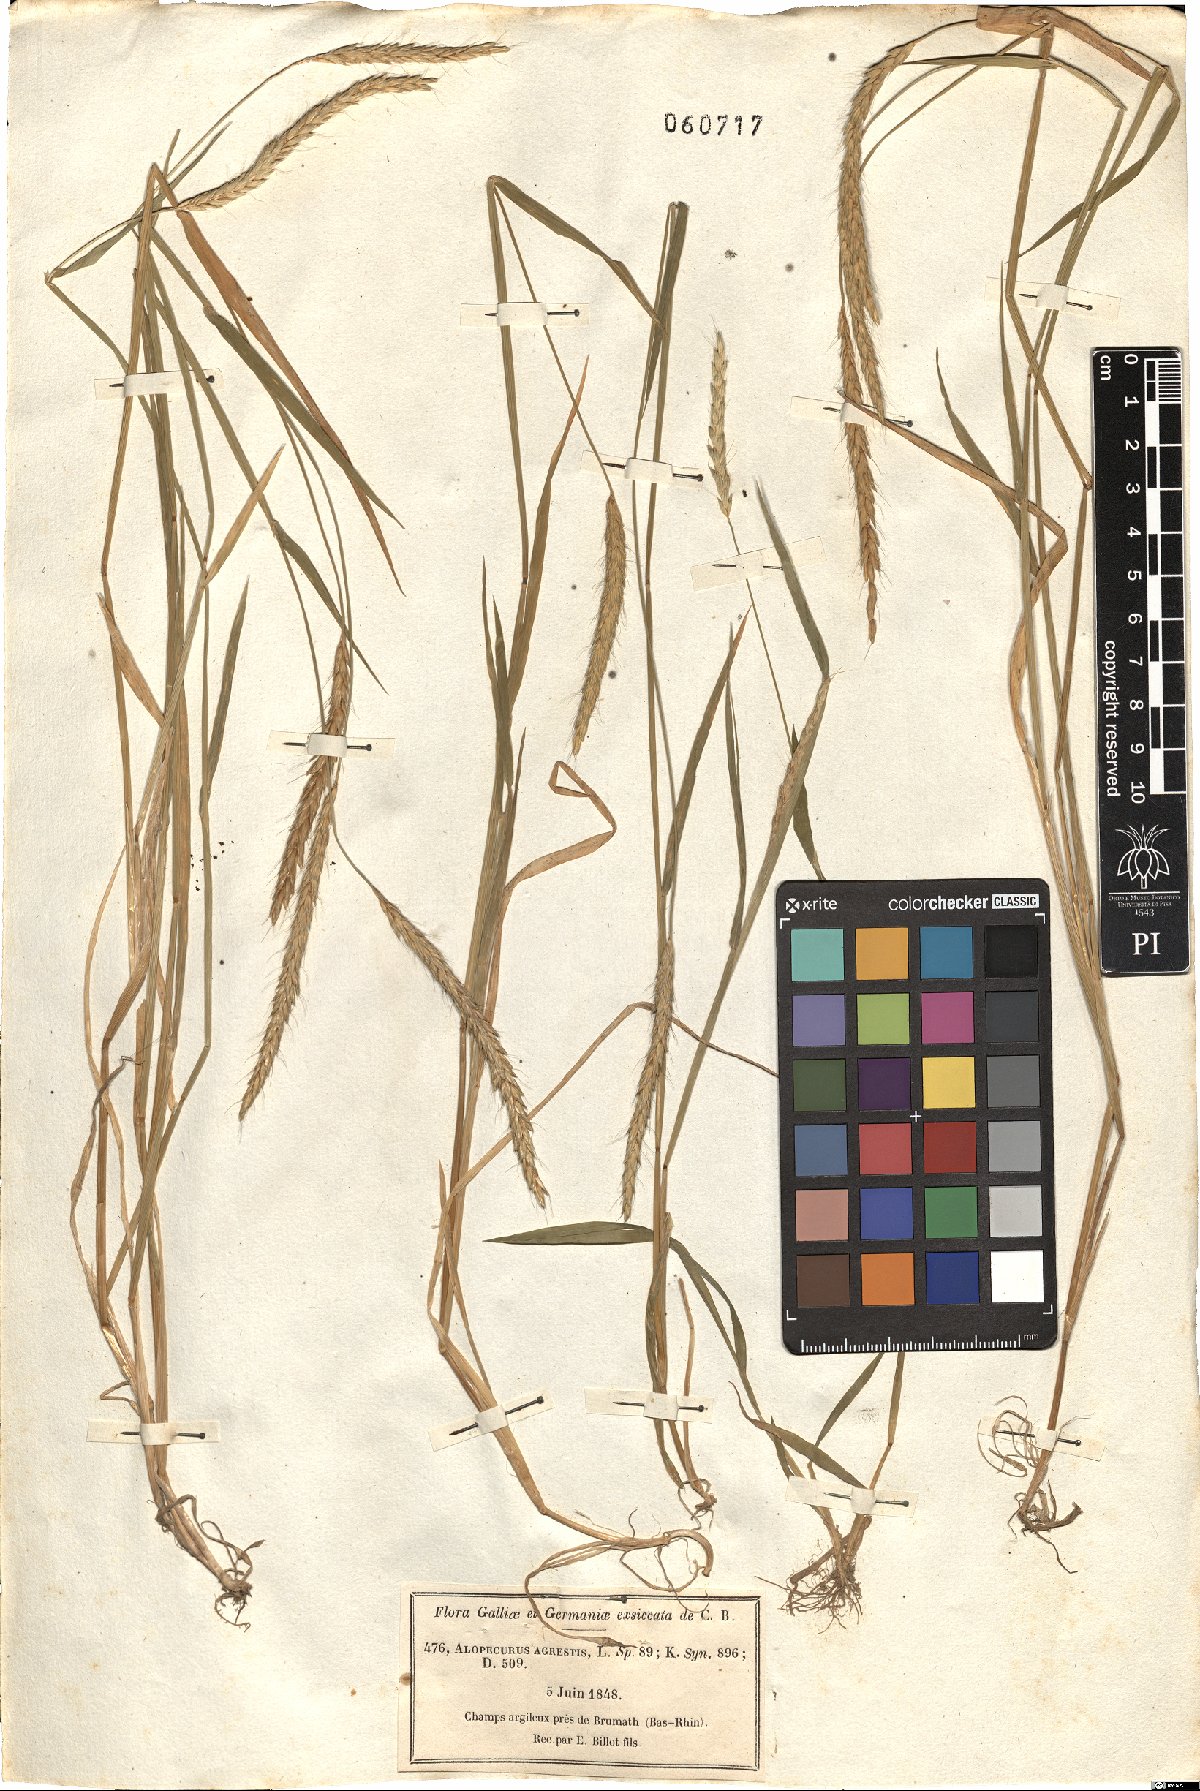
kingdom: Plantae
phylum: Tracheophyta
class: Liliopsida
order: Poales
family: Poaceae
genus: Alopecurus
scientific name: Alopecurus myosuroides
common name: Black-grass
